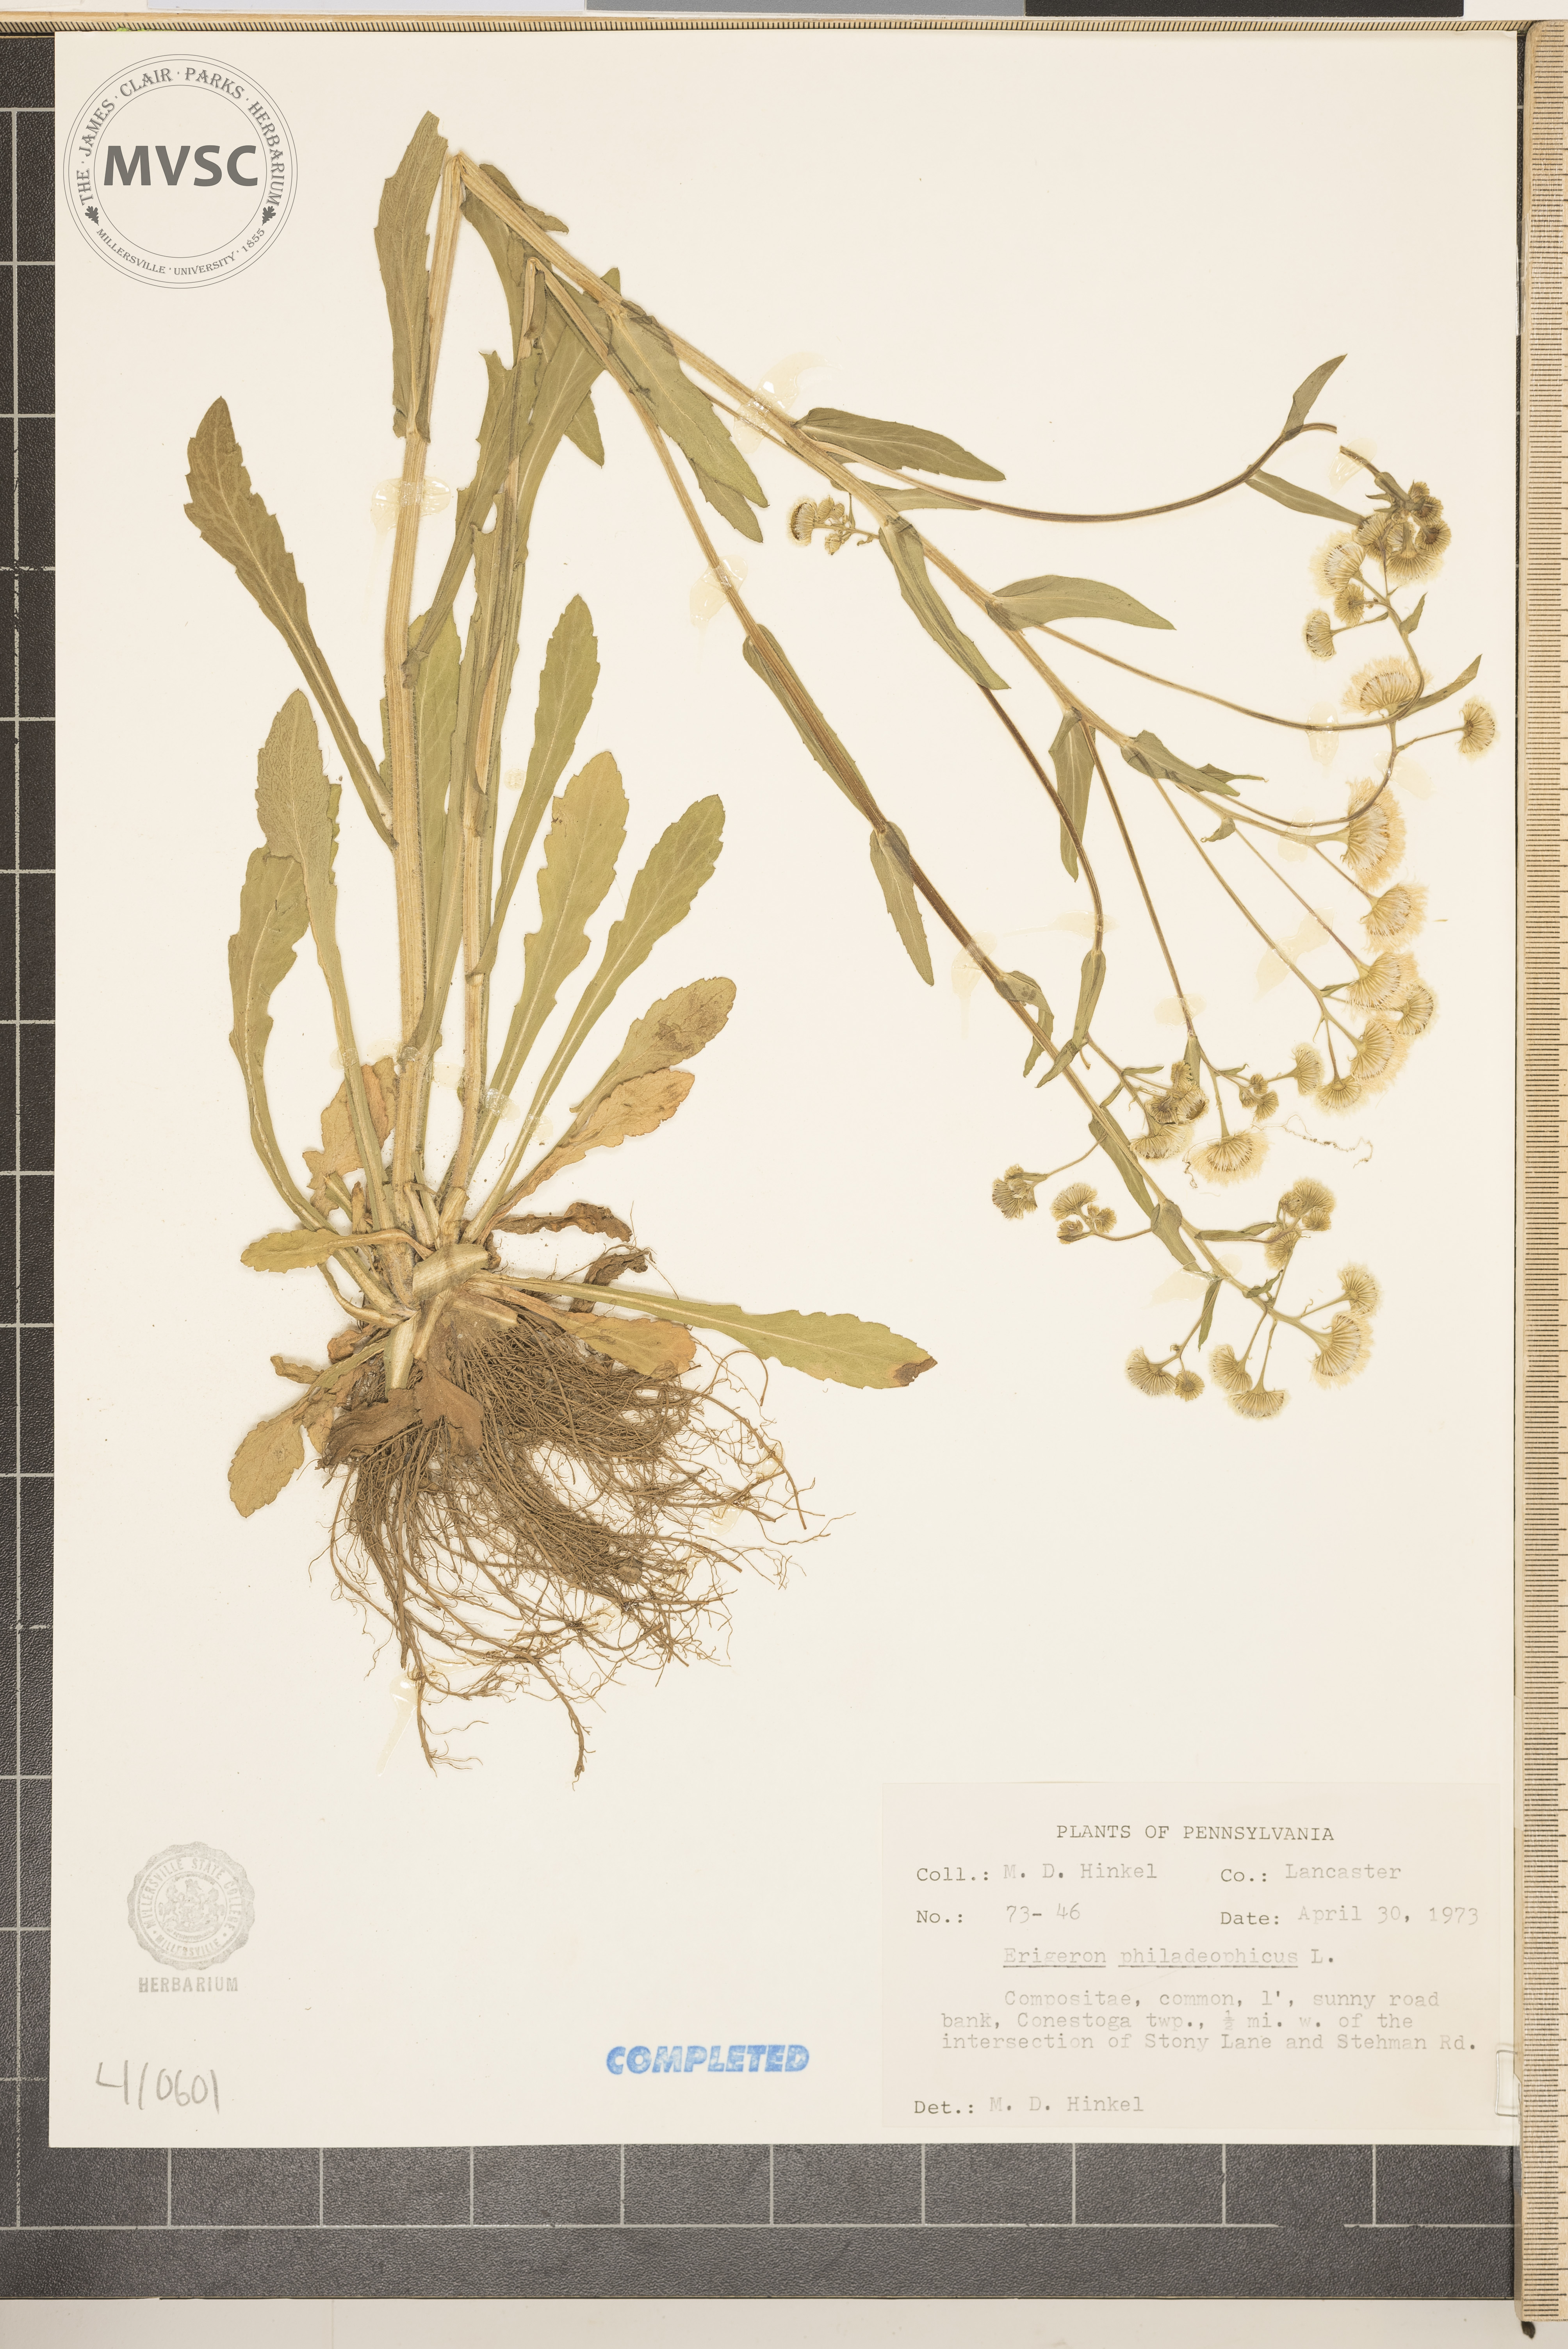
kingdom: Plantae
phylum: Tracheophyta
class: Magnoliopsida
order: Asterales
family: Asteraceae
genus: Erigeron
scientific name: Erigeron philadelphicus
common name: Robin's-plantain
